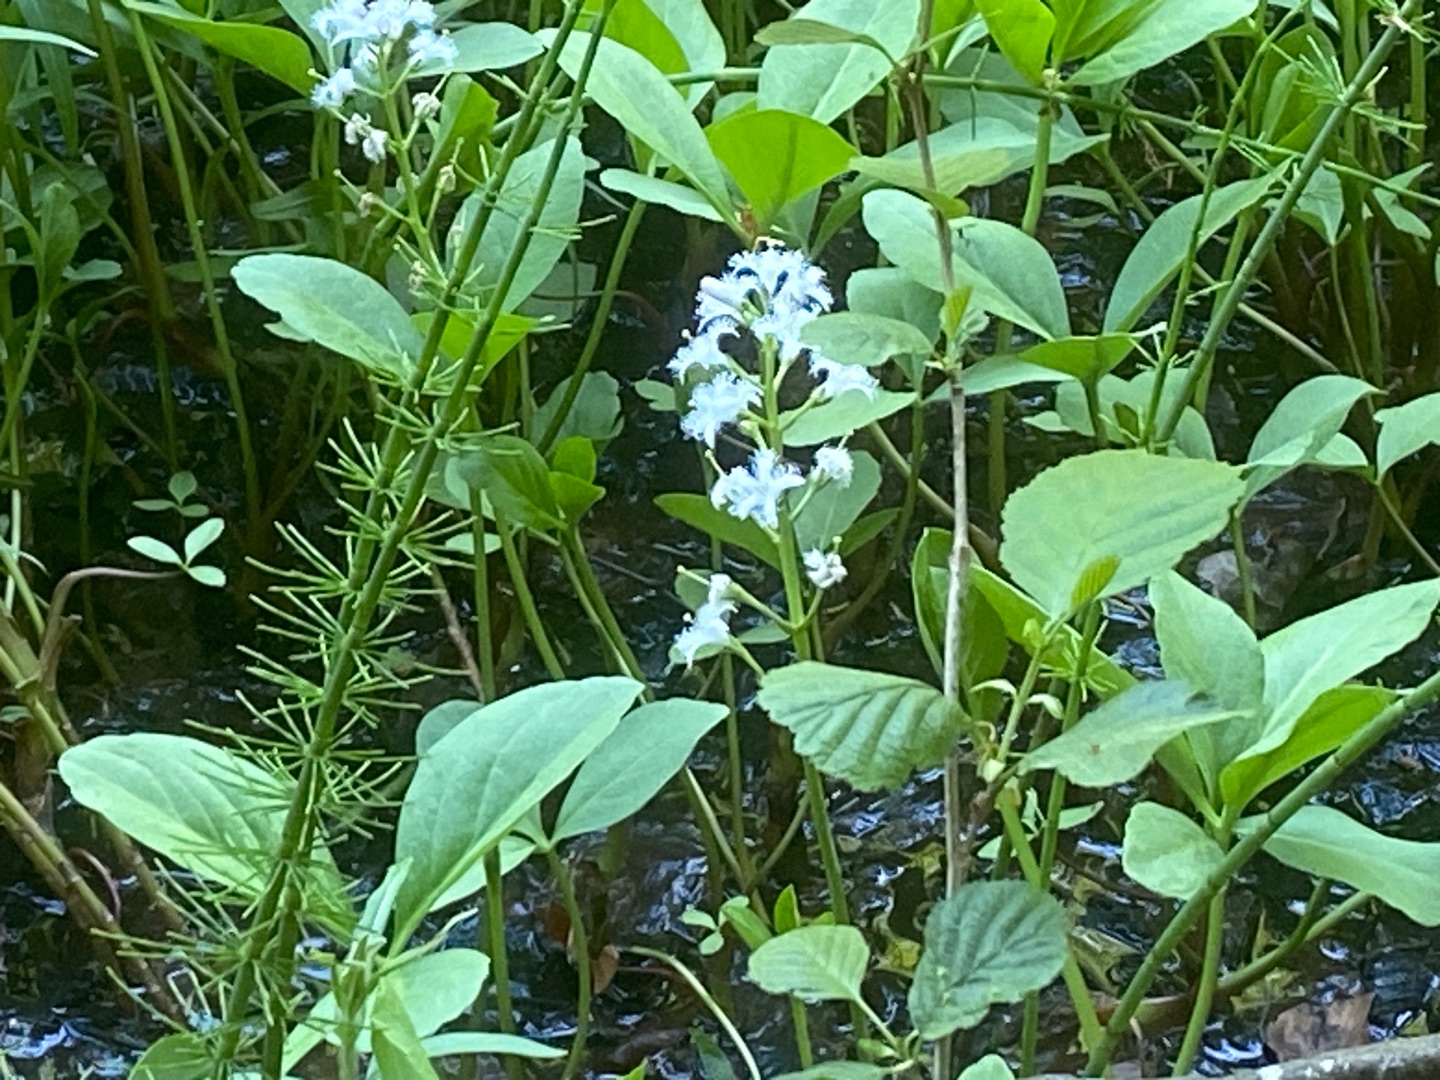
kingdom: Plantae
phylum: Tracheophyta
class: Magnoliopsida
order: Asterales
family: Menyanthaceae
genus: Menyanthes
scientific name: Menyanthes trifoliata
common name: Bukkeblad
